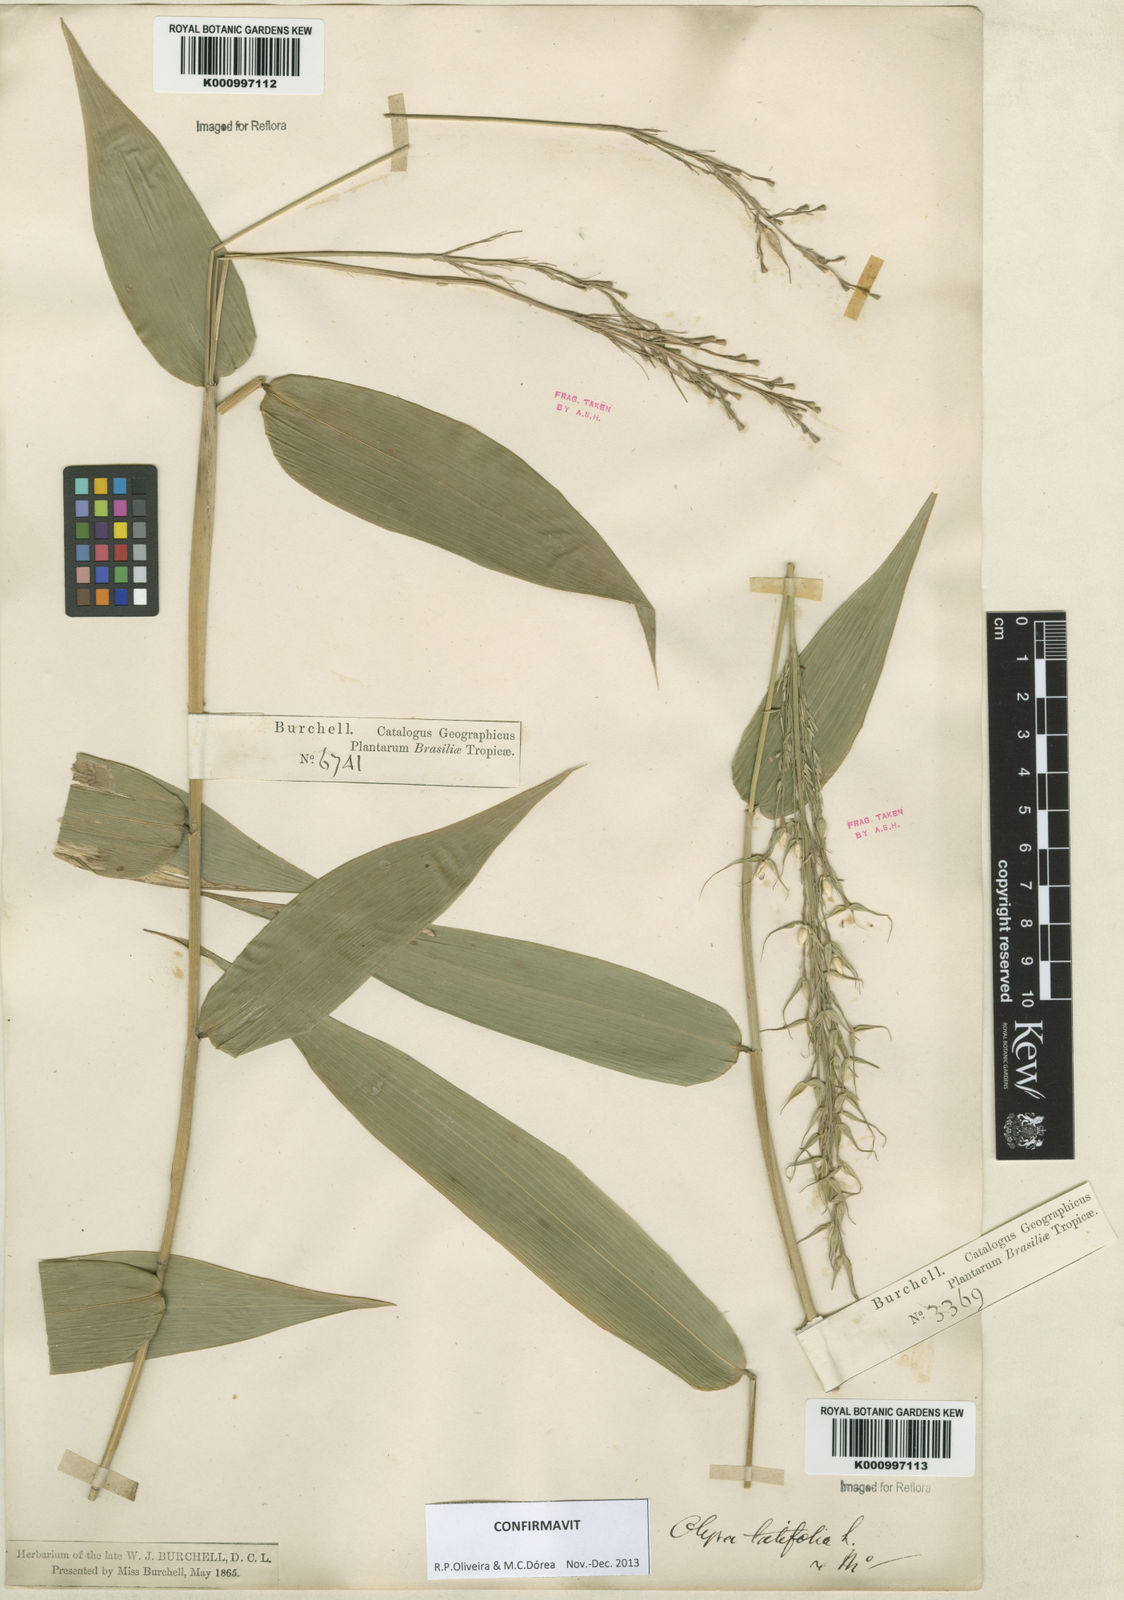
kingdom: Plantae
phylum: Tracheophyta
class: Liliopsida
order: Poales
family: Poaceae
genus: Olyra
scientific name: Olyra latifolia
